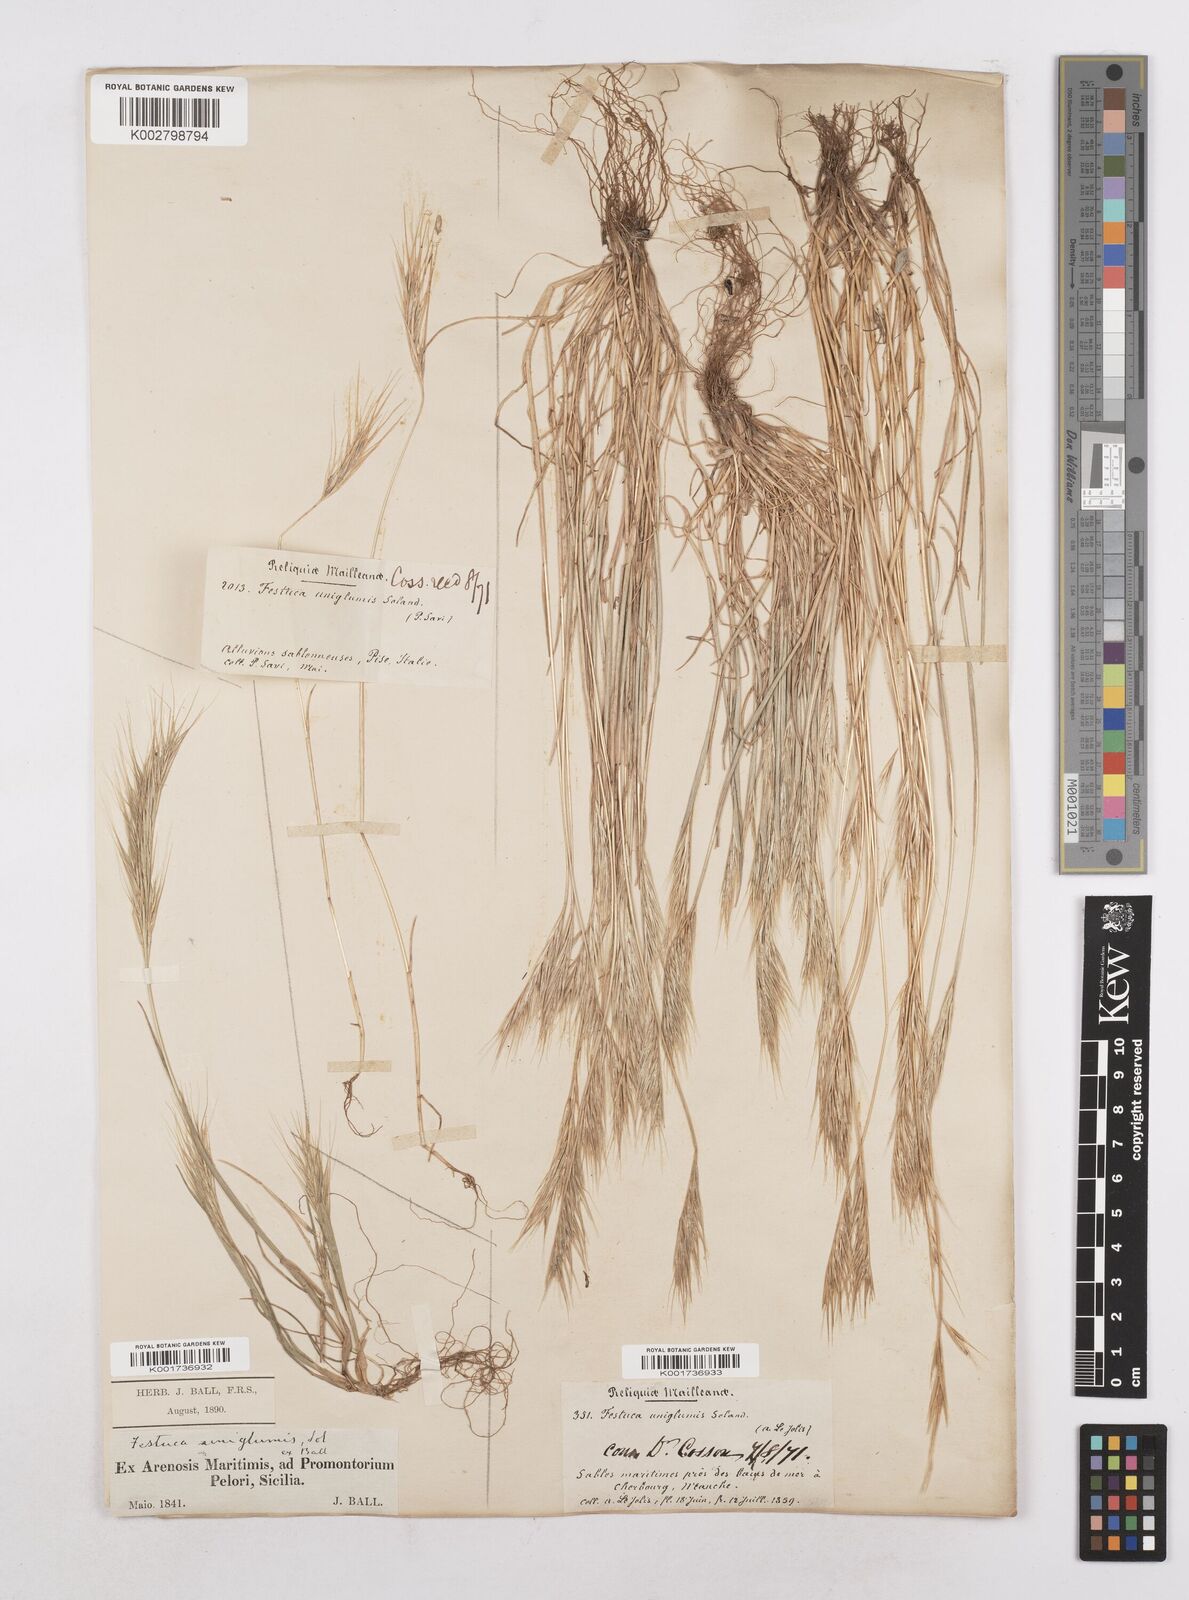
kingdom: Plantae
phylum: Tracheophyta
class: Liliopsida
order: Poales
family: Poaceae
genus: Festuca
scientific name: Festuca fasciculata
